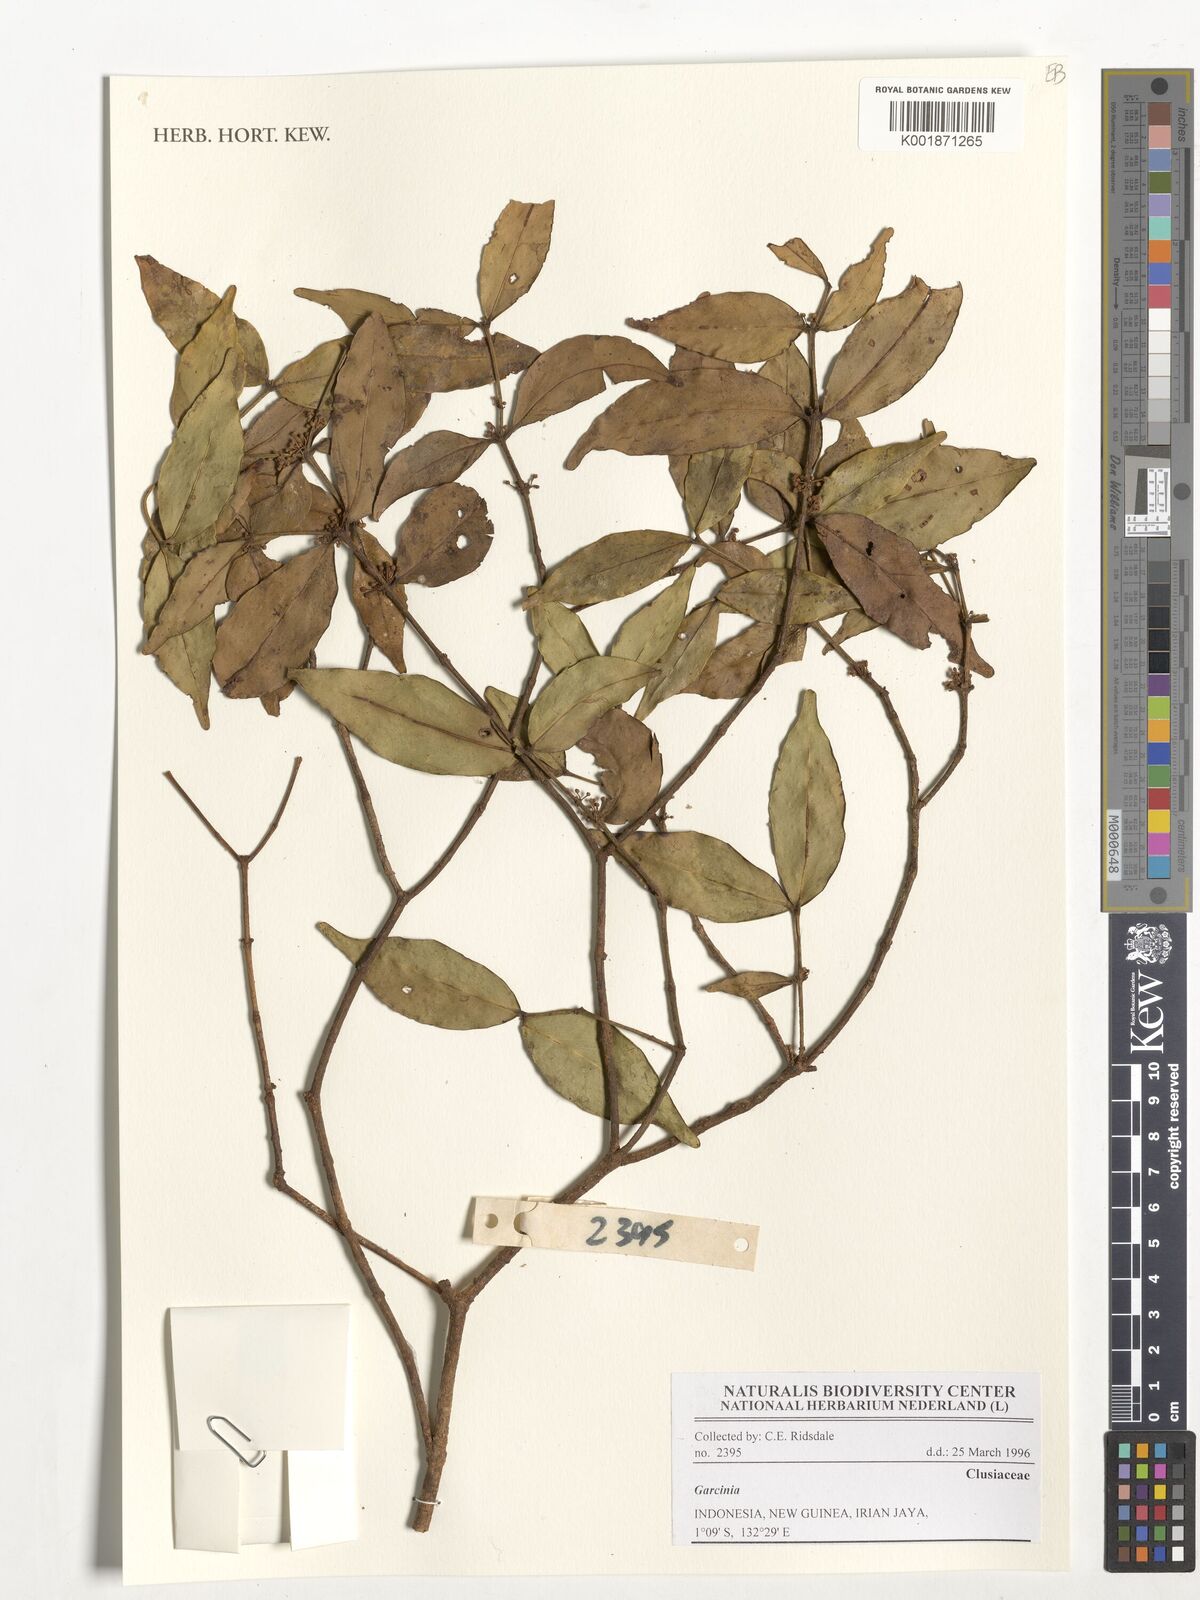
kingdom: Plantae
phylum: Tracheophyta
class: Magnoliopsida
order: Malpighiales
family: Clusiaceae
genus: Garcinia
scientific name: Garcinia
